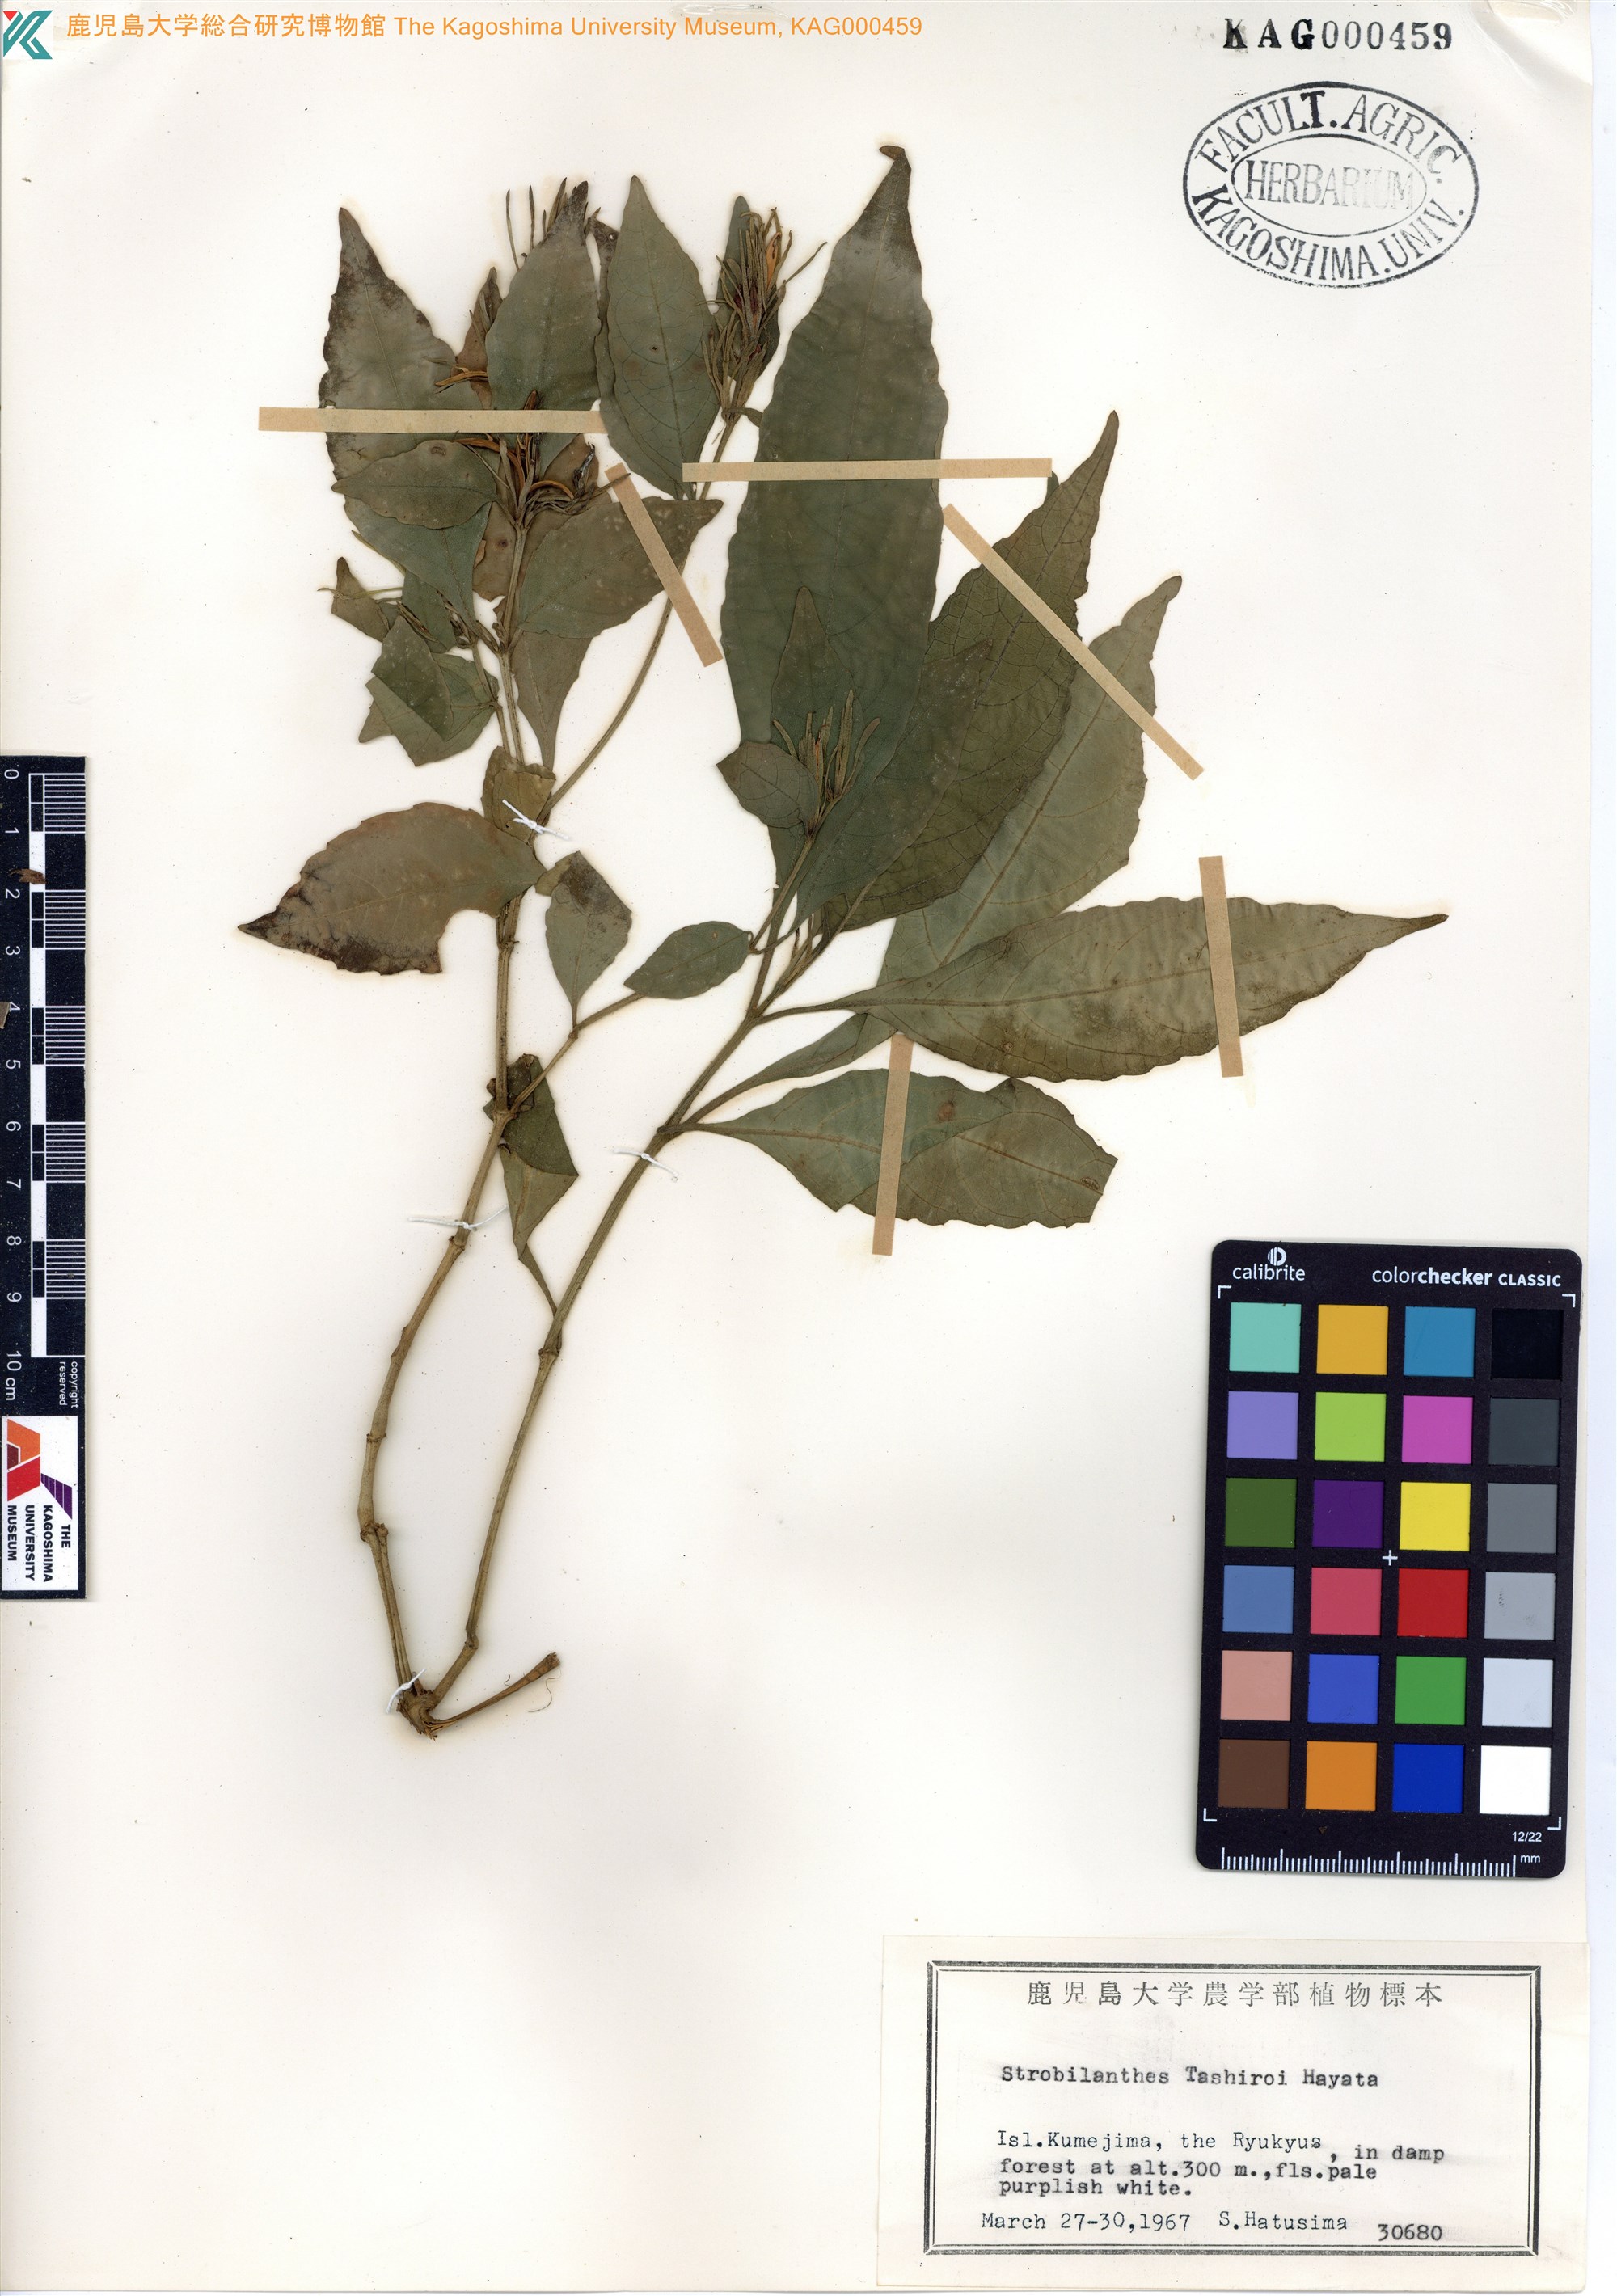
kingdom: Plantae
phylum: Tracheophyta
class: Magnoliopsida
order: Lamiales
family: Acanthaceae
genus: Strobilanthes
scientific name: Strobilanthes flexicaulis
